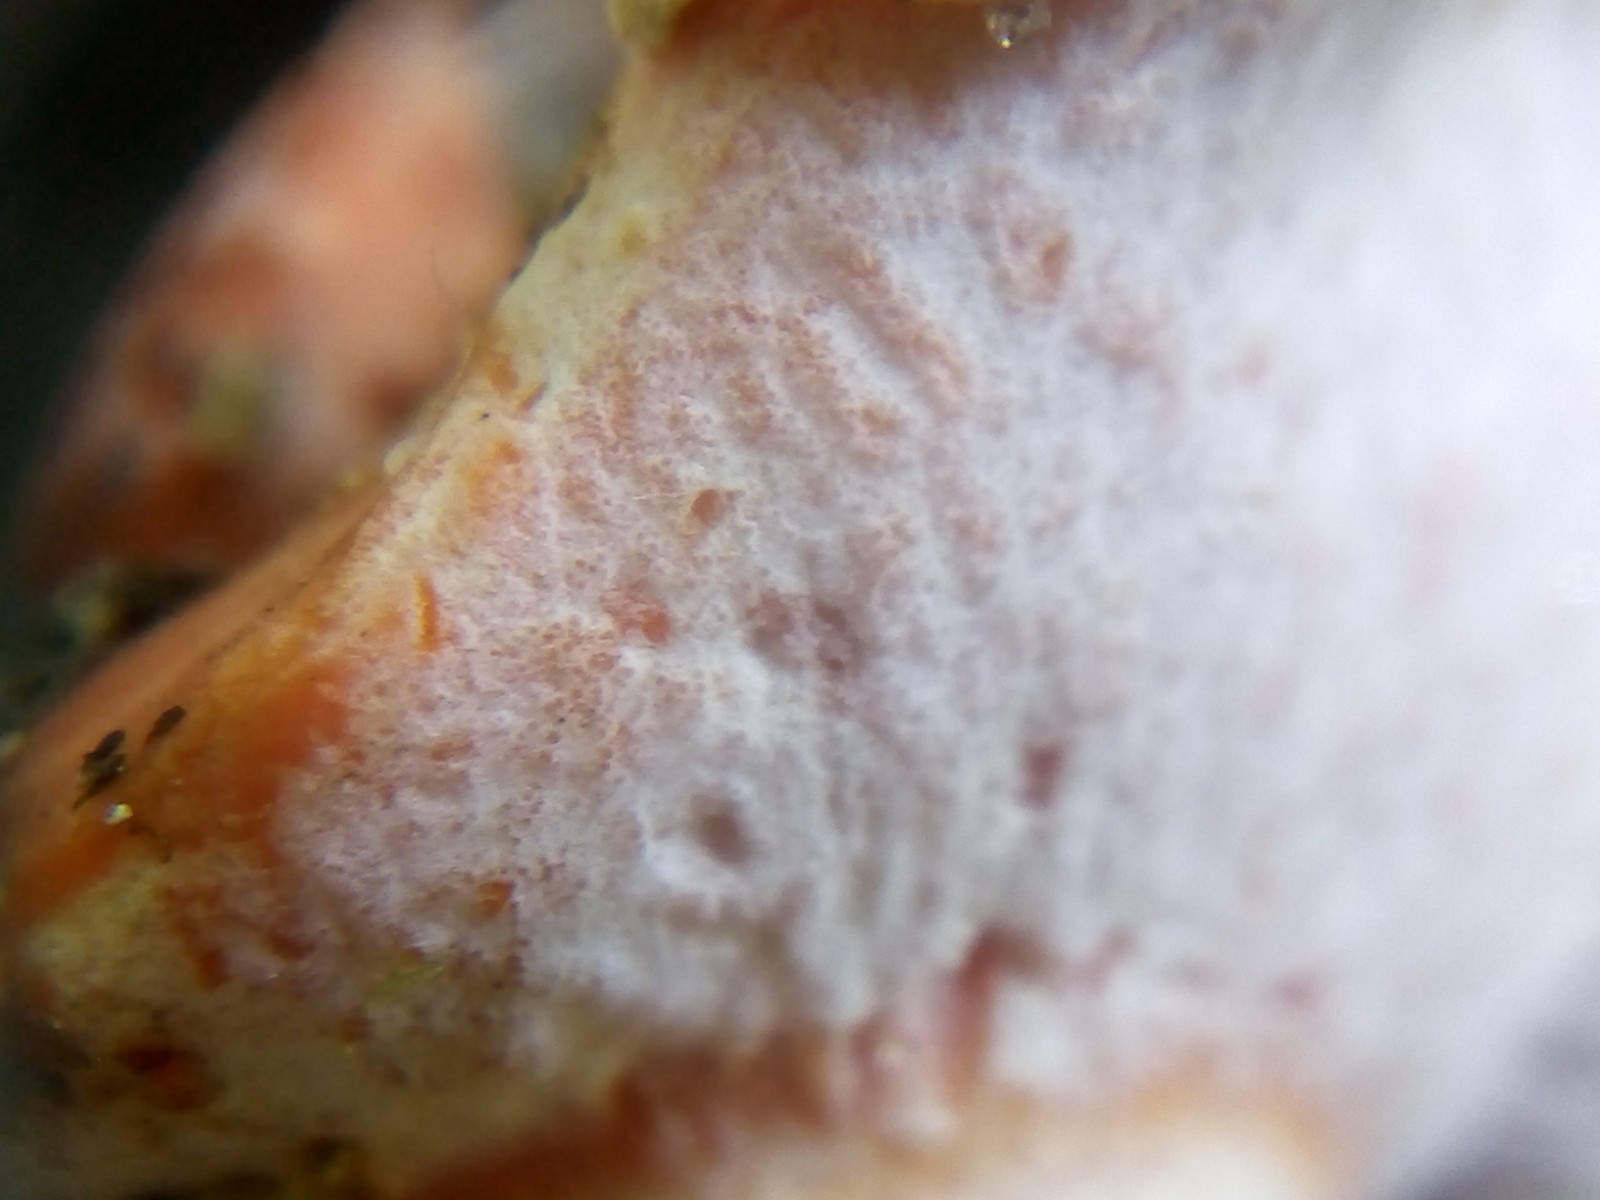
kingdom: Fungi
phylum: Ascomycota
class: Sordariomycetes
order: Hypocreales
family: Hypocreaceae
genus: Hypomyces
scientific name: Hypomyces lateritius
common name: mælkehat-snylteskorpe
